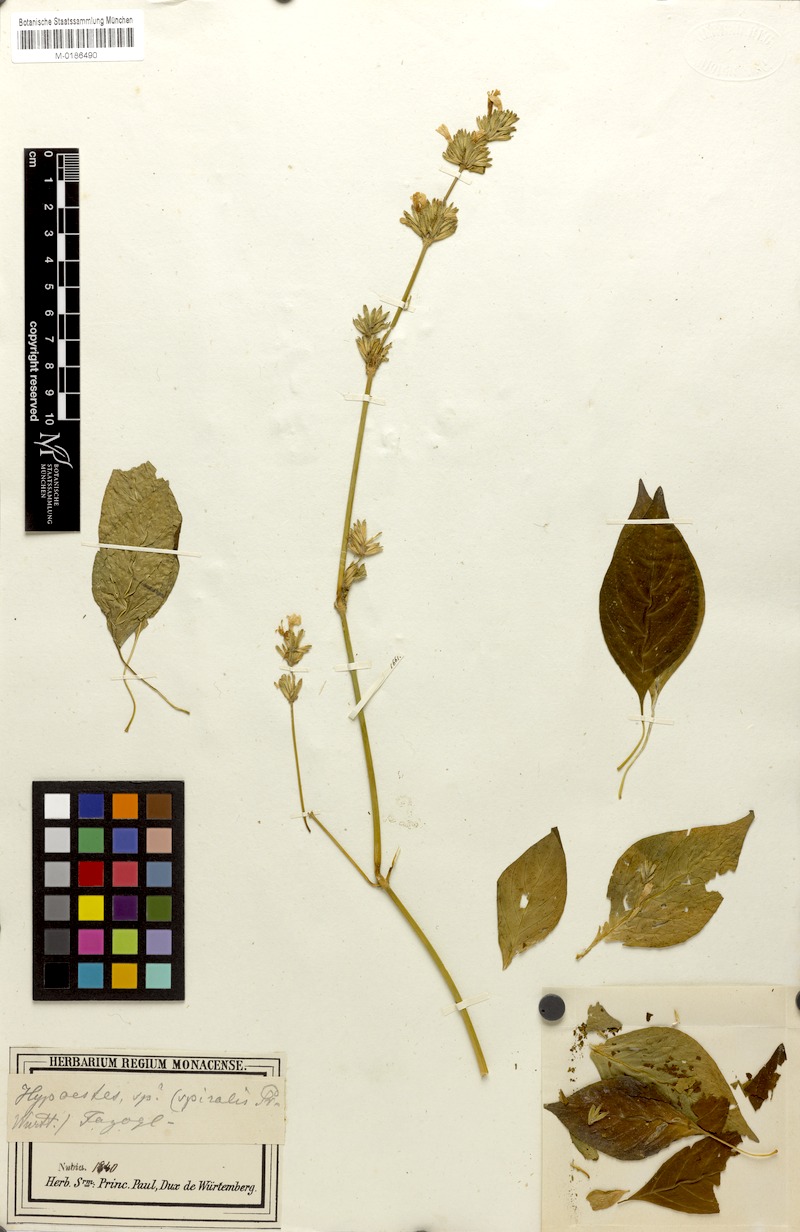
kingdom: Plantae
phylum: Tracheophyta
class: Magnoliopsida
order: Lamiales
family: Acanthaceae
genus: Hypoestes
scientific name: Hypoestes
